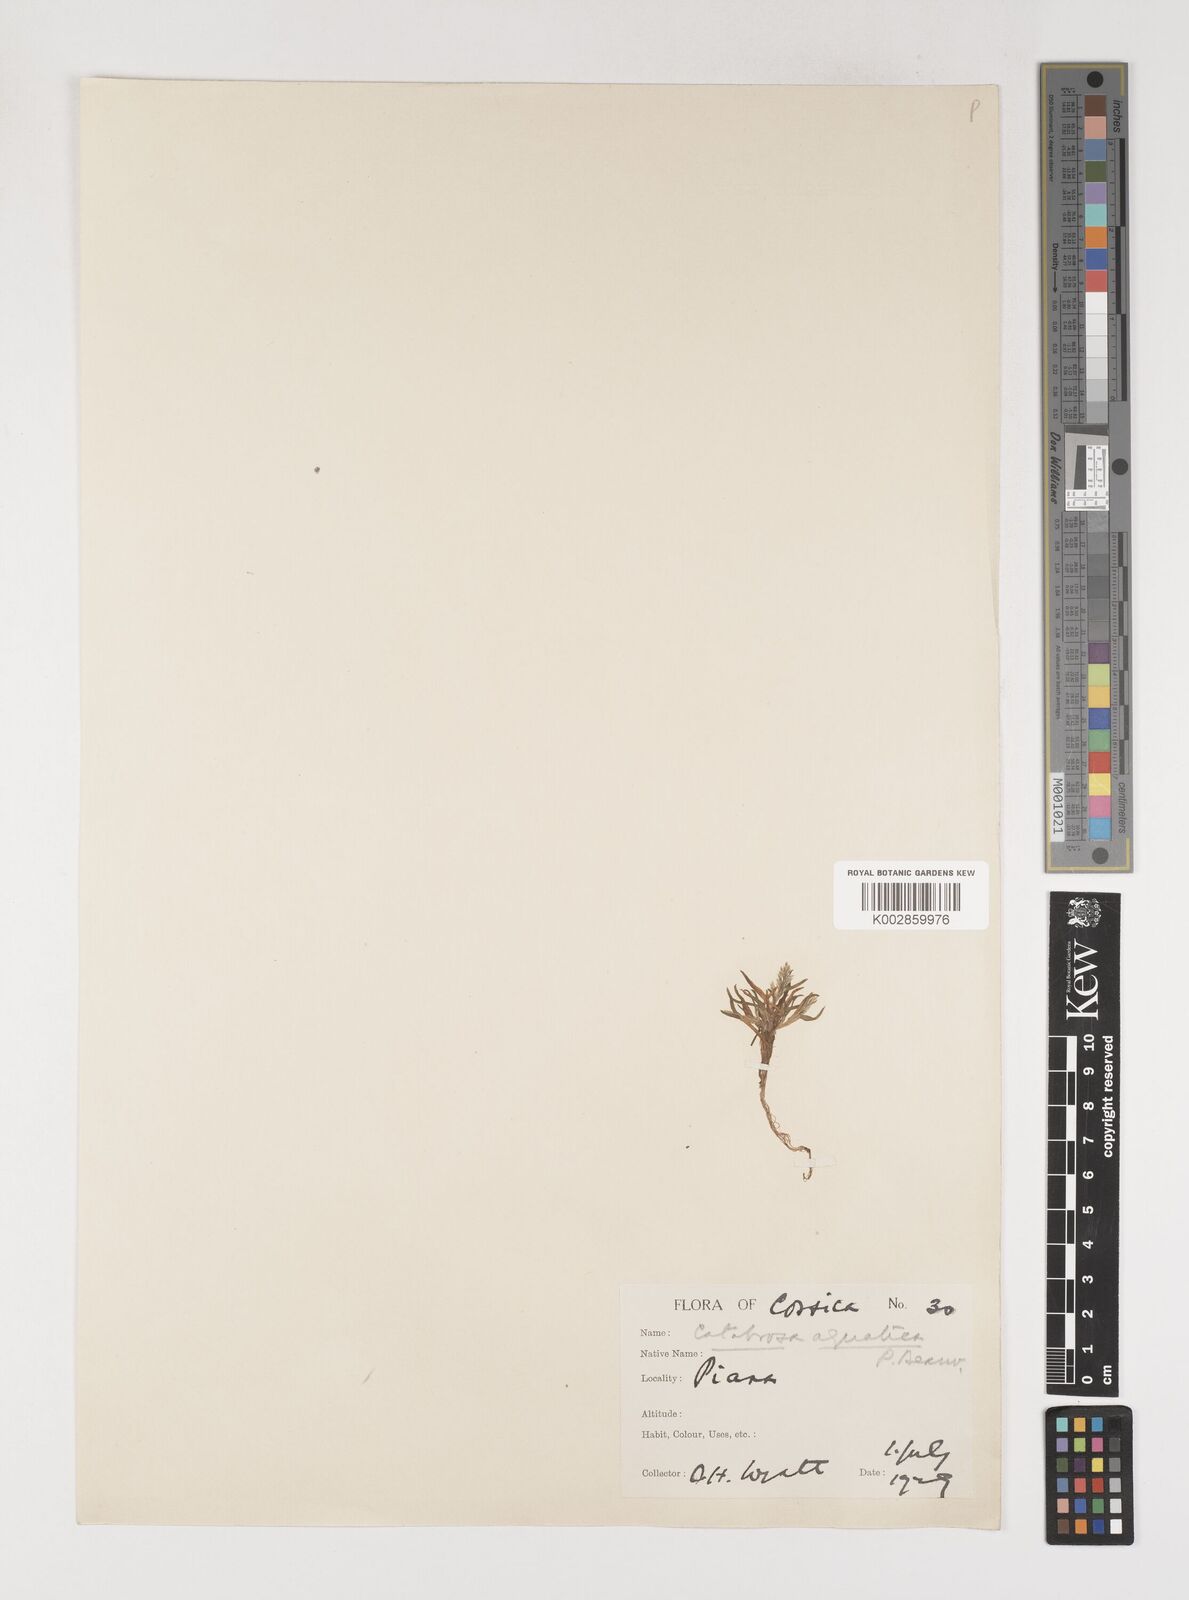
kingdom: Plantae
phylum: Tracheophyta
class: Liliopsida
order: Poales
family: Poaceae
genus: Poa
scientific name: Poa infirma
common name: Weak bluegrass
